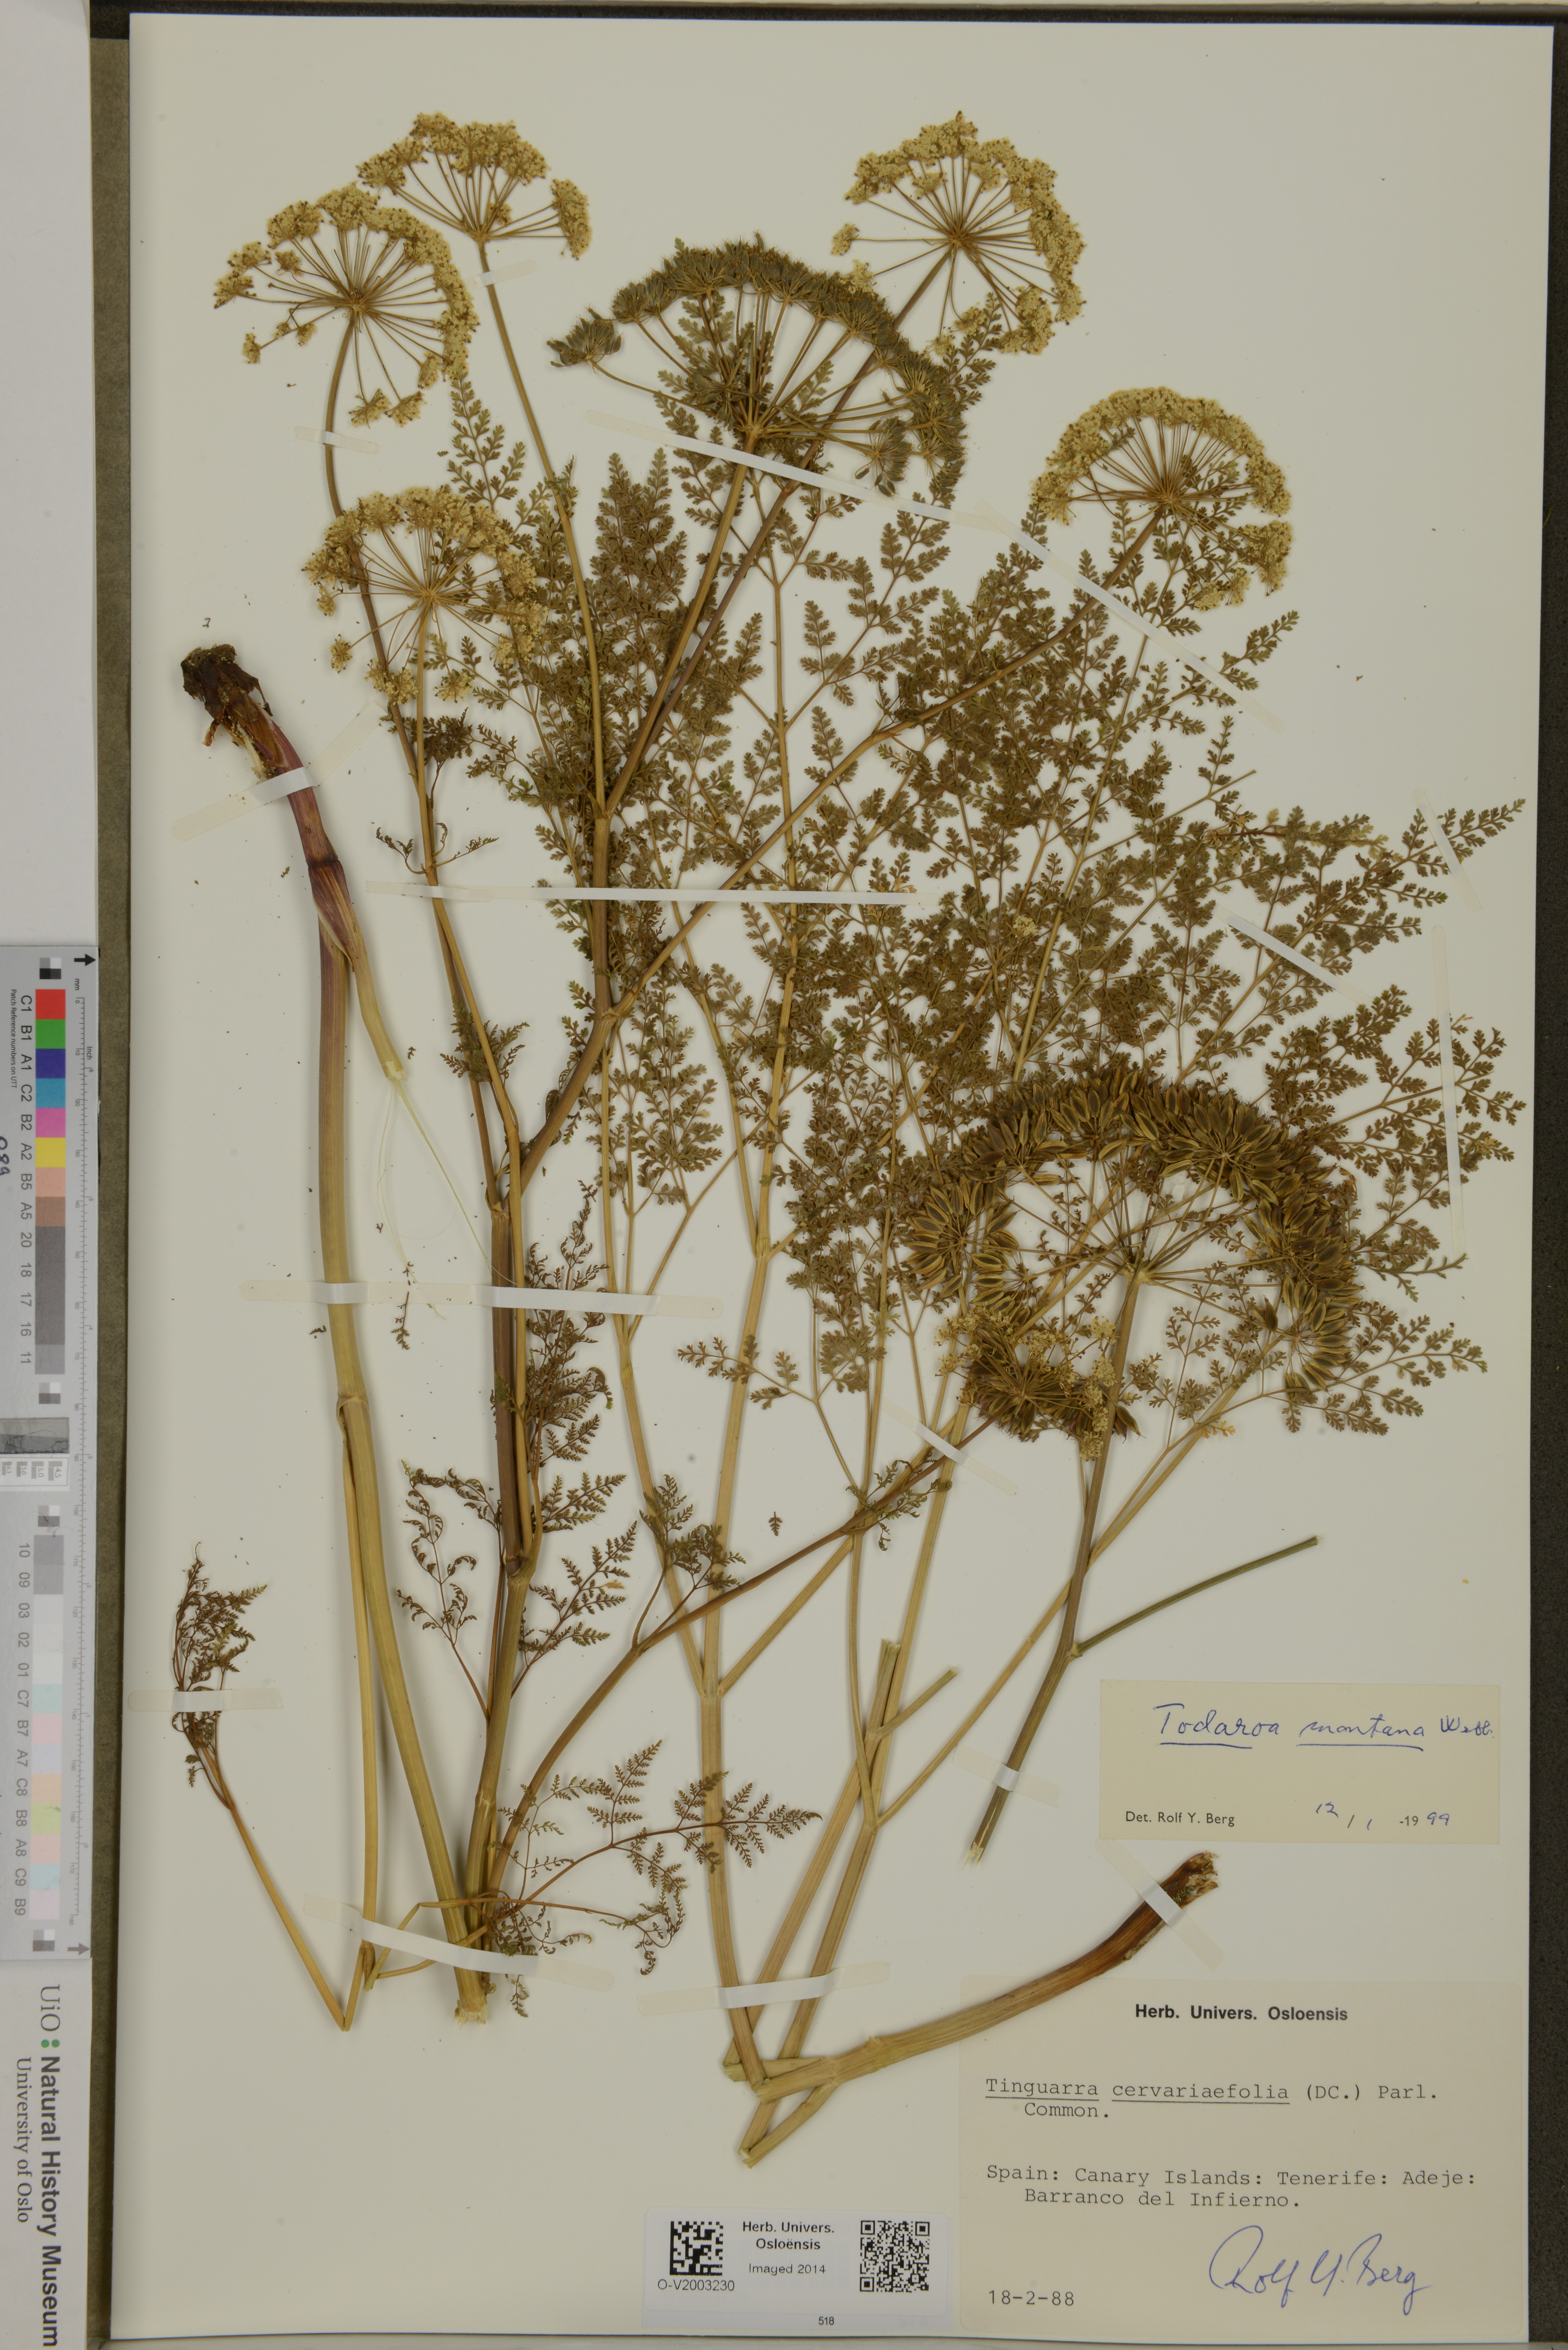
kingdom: Plantae
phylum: Tracheophyta
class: Magnoliopsida
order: Apiales
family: Apiaceae
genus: Athamanta
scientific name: Athamanta montana
